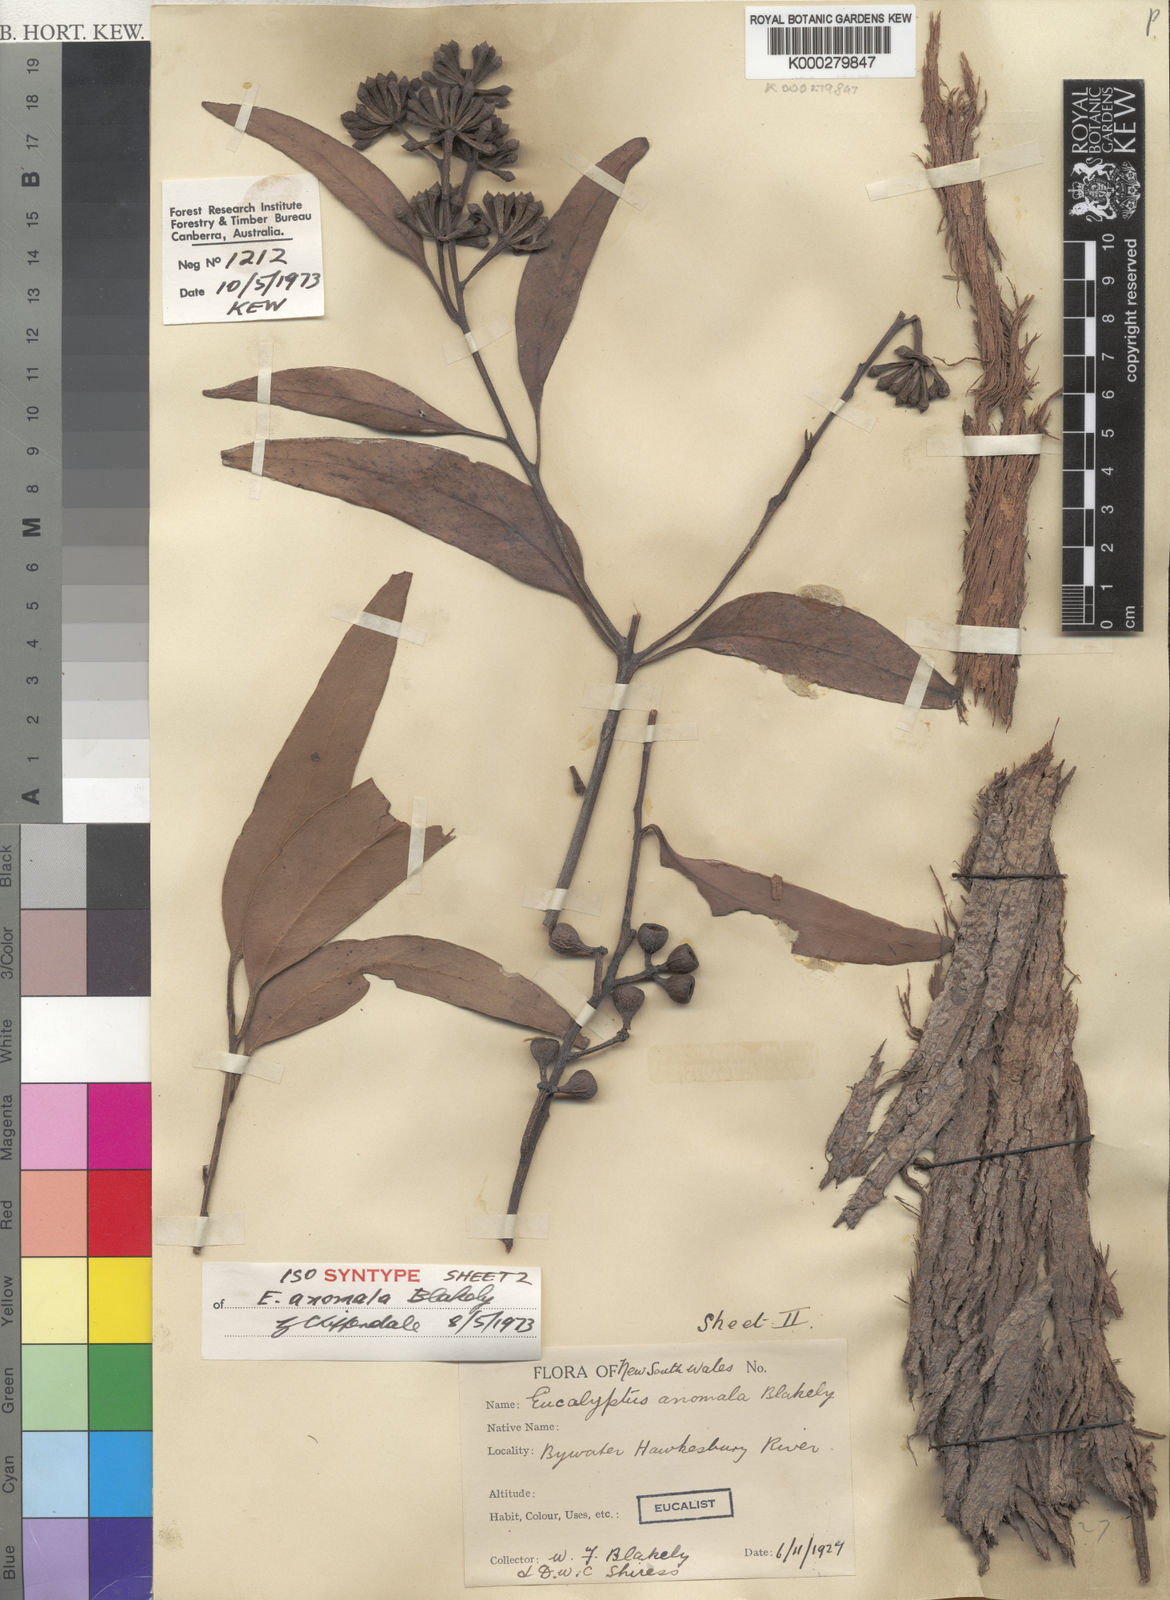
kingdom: Plantae
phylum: Tracheophyta
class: Magnoliopsida
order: Myrtales
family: Myrtaceae
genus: Eucalyptus
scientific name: Eucalyptus anomala
